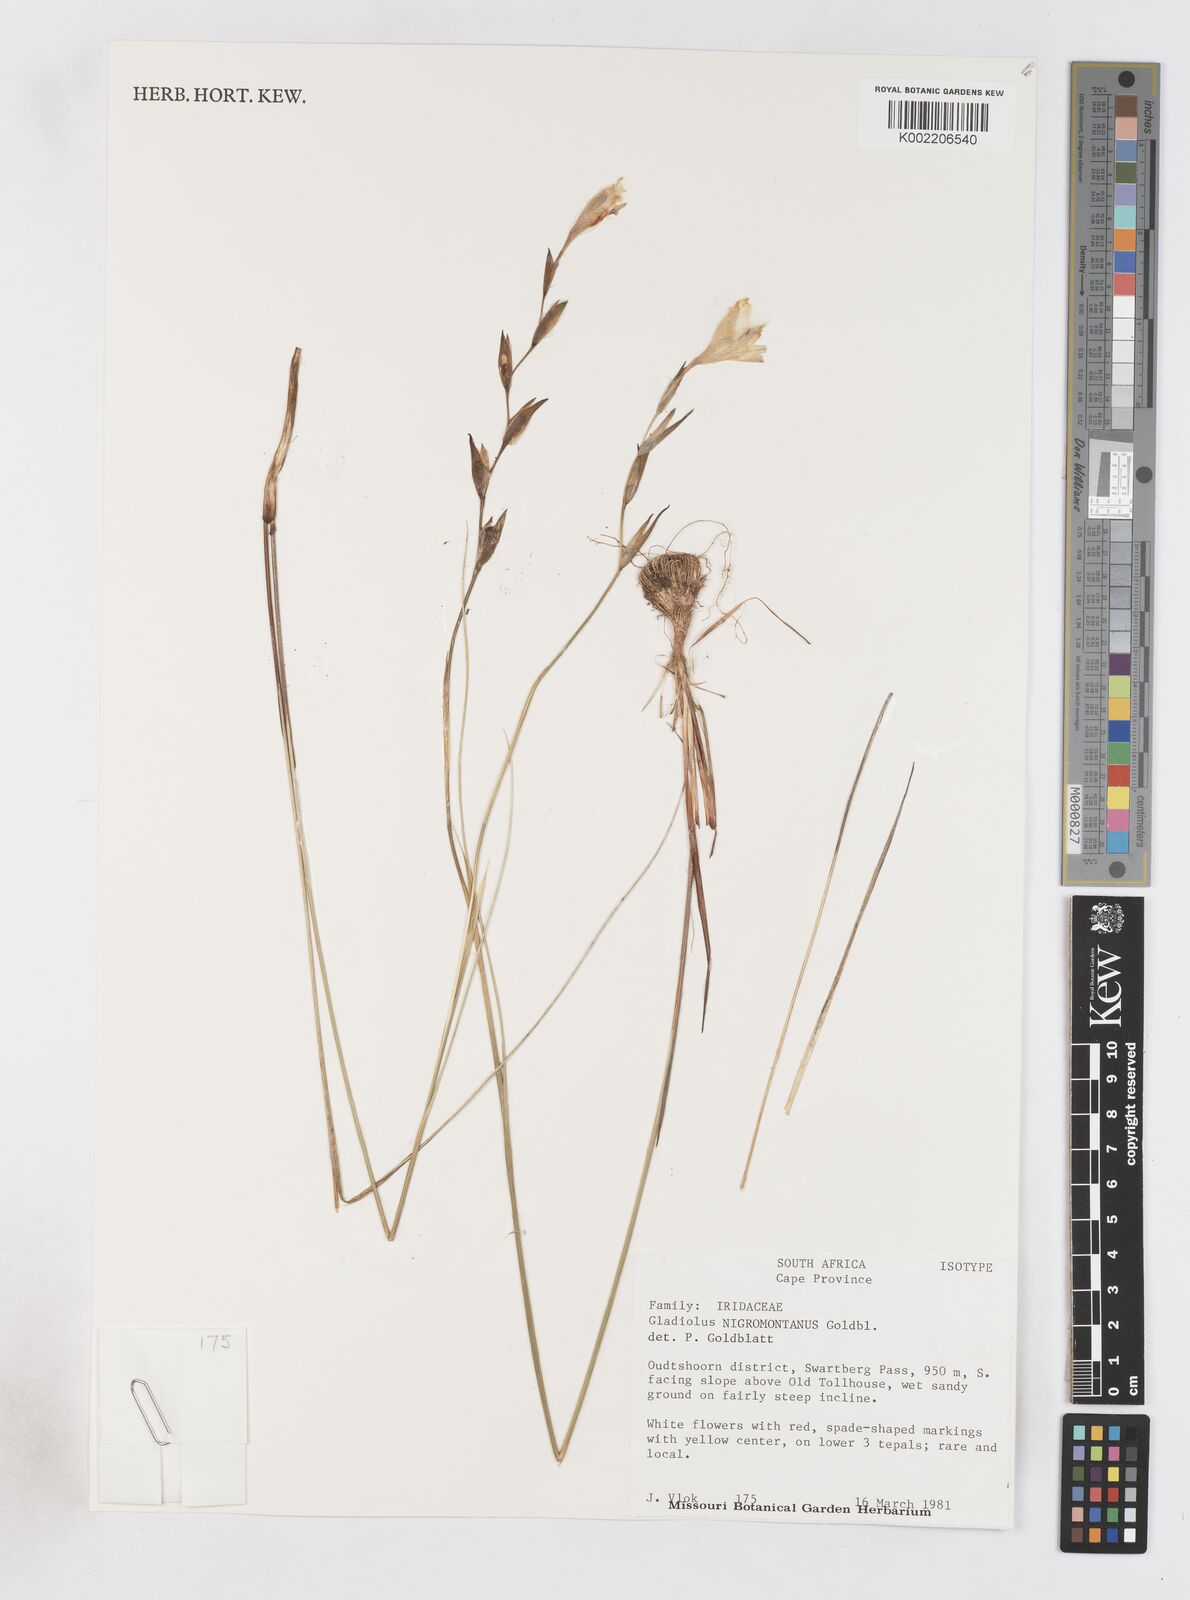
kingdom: Plantae
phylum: Tracheophyta
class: Liliopsida
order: Asparagales
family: Iridaceae
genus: Gladiolus
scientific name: Gladiolus nigromontanus
